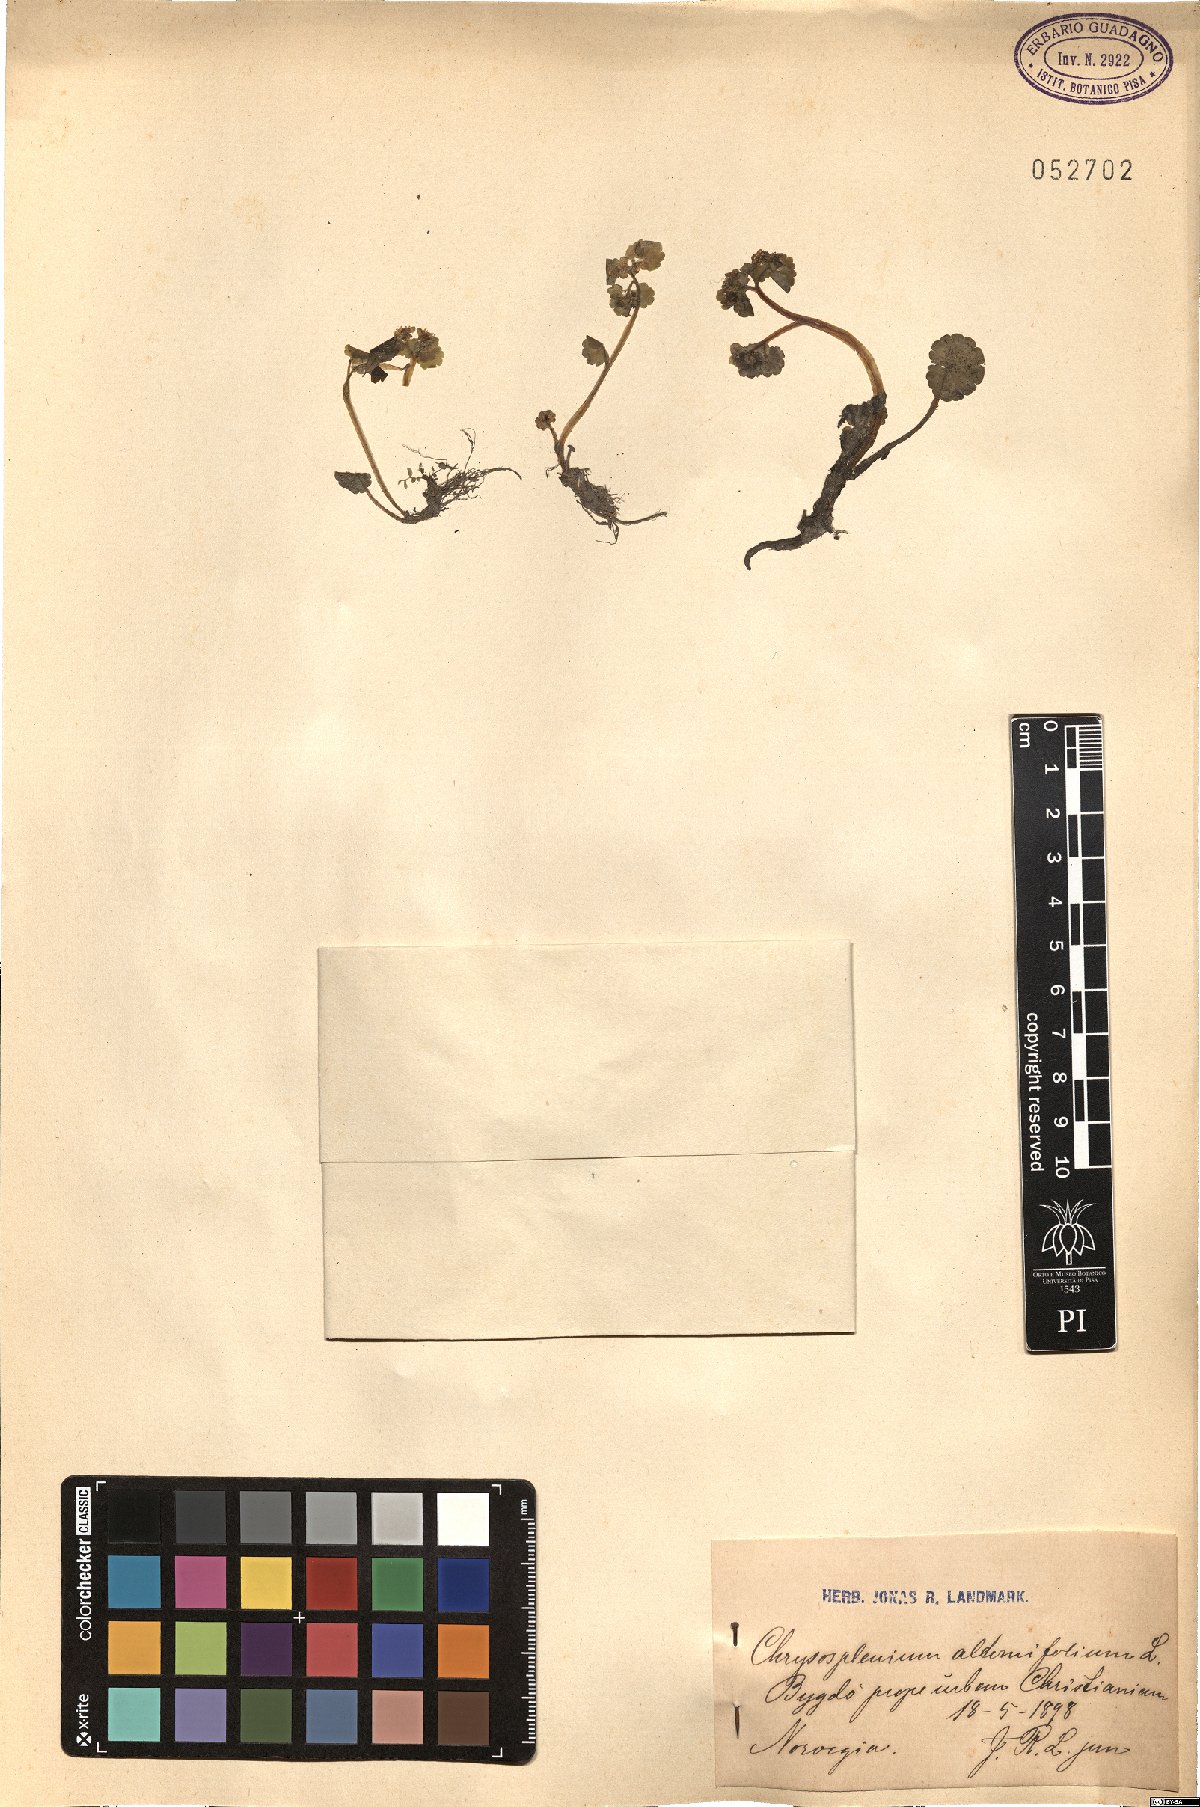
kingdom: Plantae
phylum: Tracheophyta
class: Magnoliopsida
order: Saxifragales
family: Saxifragaceae
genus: Chrysosplenium
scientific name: Chrysosplenium alternifolium
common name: Alternate-leaved golden-saxifrage
